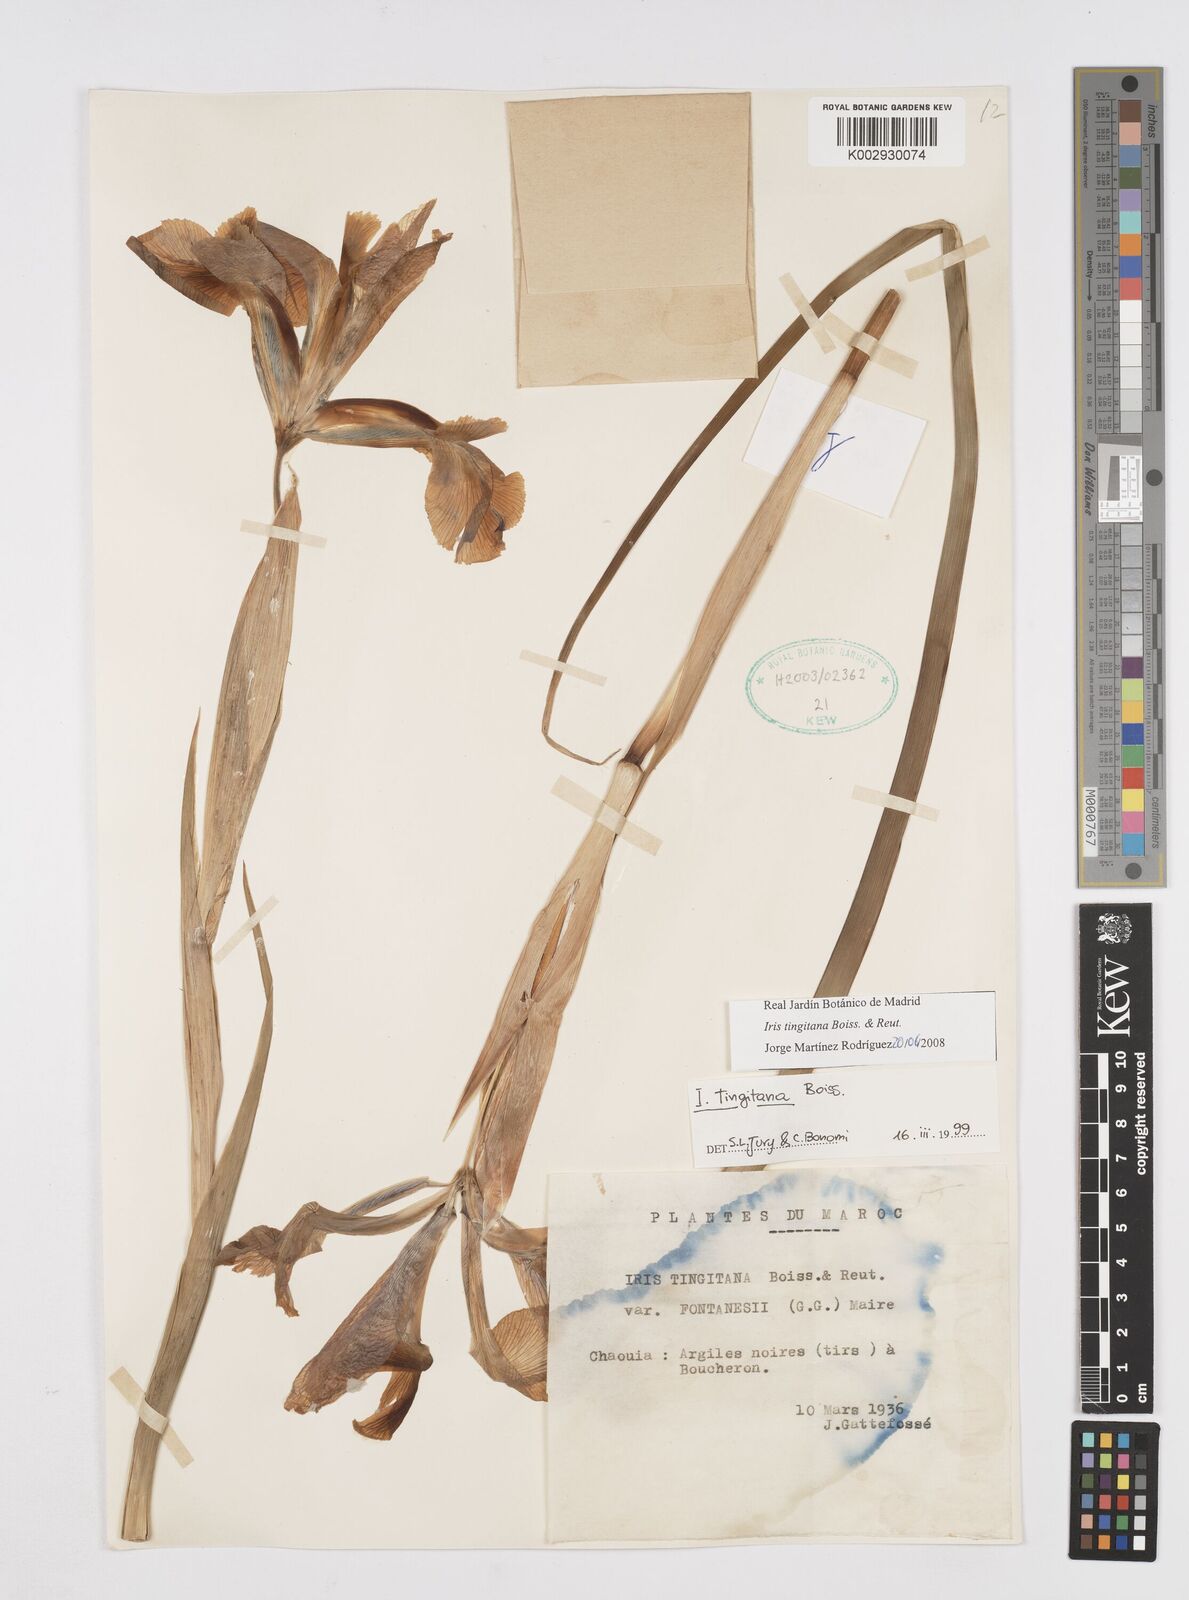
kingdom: Plantae
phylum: Tracheophyta
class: Liliopsida
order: Asparagales
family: Iridaceae
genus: Iris
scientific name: Iris tingitana
